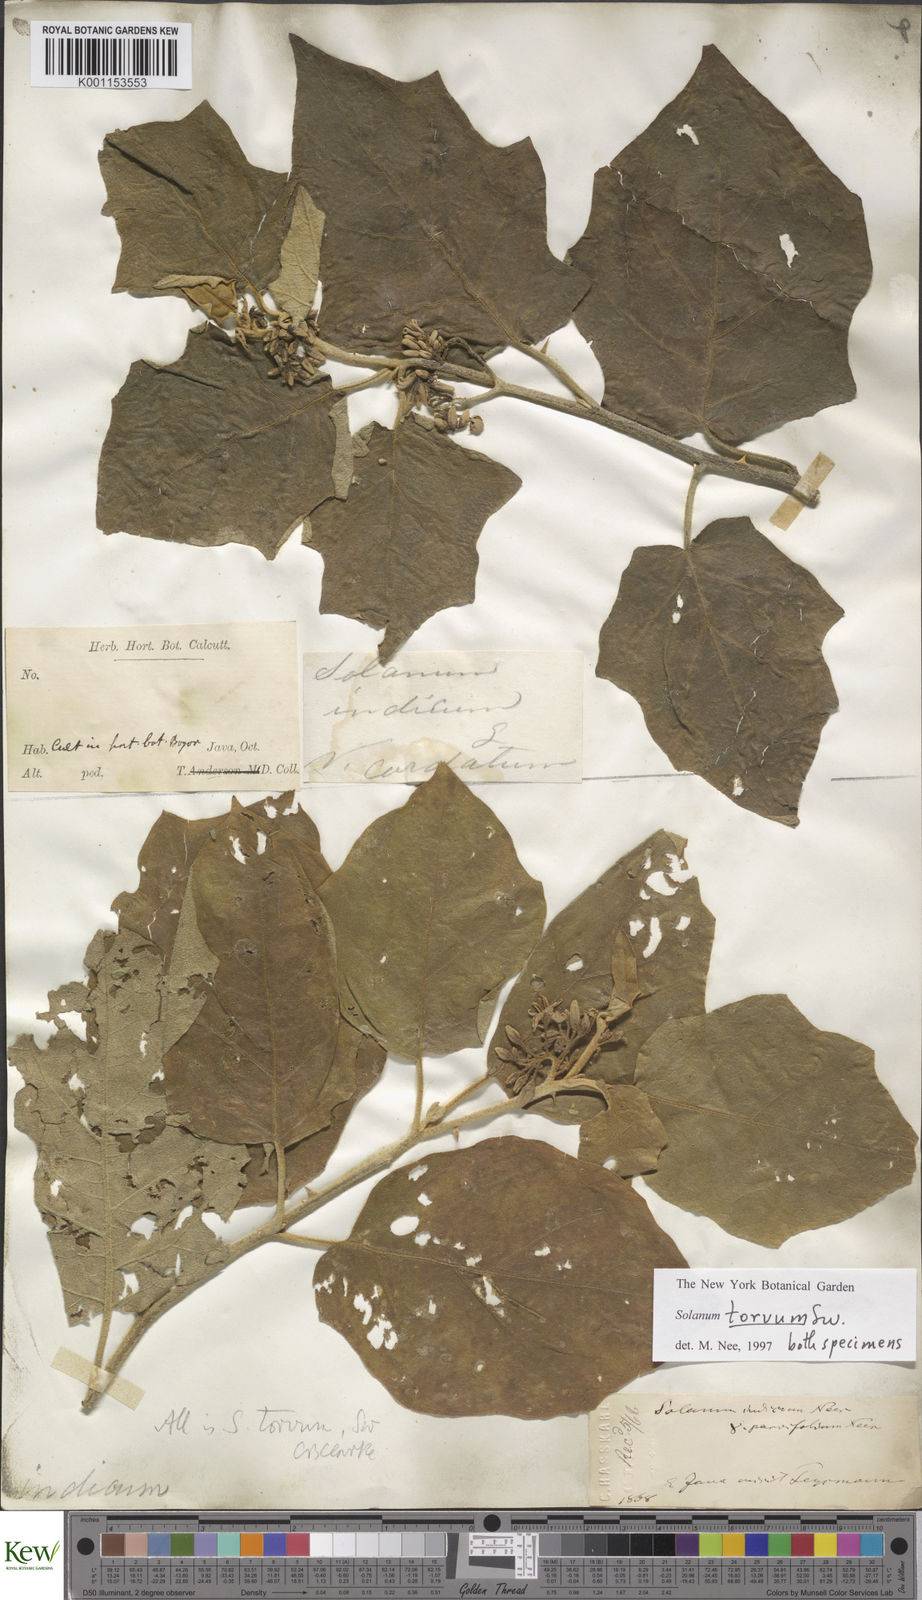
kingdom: Plantae
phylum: Tracheophyta
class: Magnoliopsida
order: Solanales
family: Solanaceae
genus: Solanum
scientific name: Solanum torvum
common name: Turkey berry
